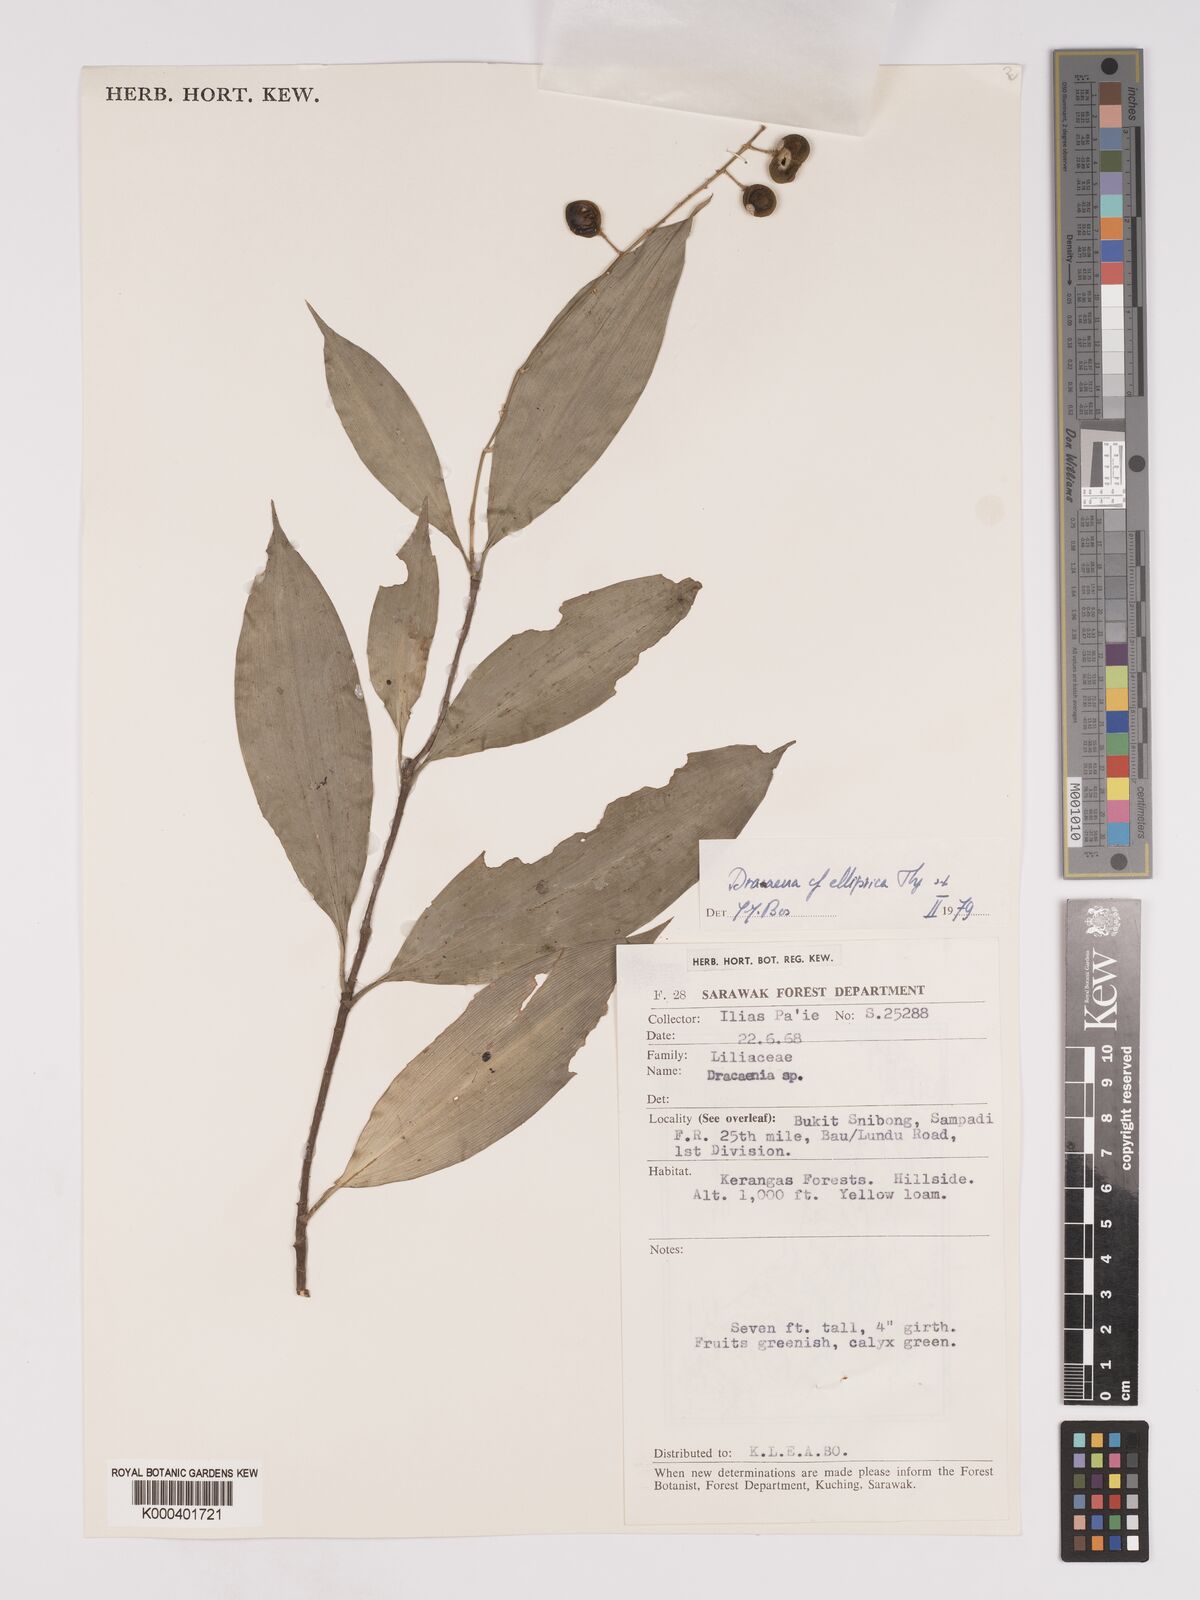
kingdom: Plantae
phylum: Tracheophyta
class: Liliopsida
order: Asparagales
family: Asparagaceae
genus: Dracaena
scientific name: Dracaena elliptica
